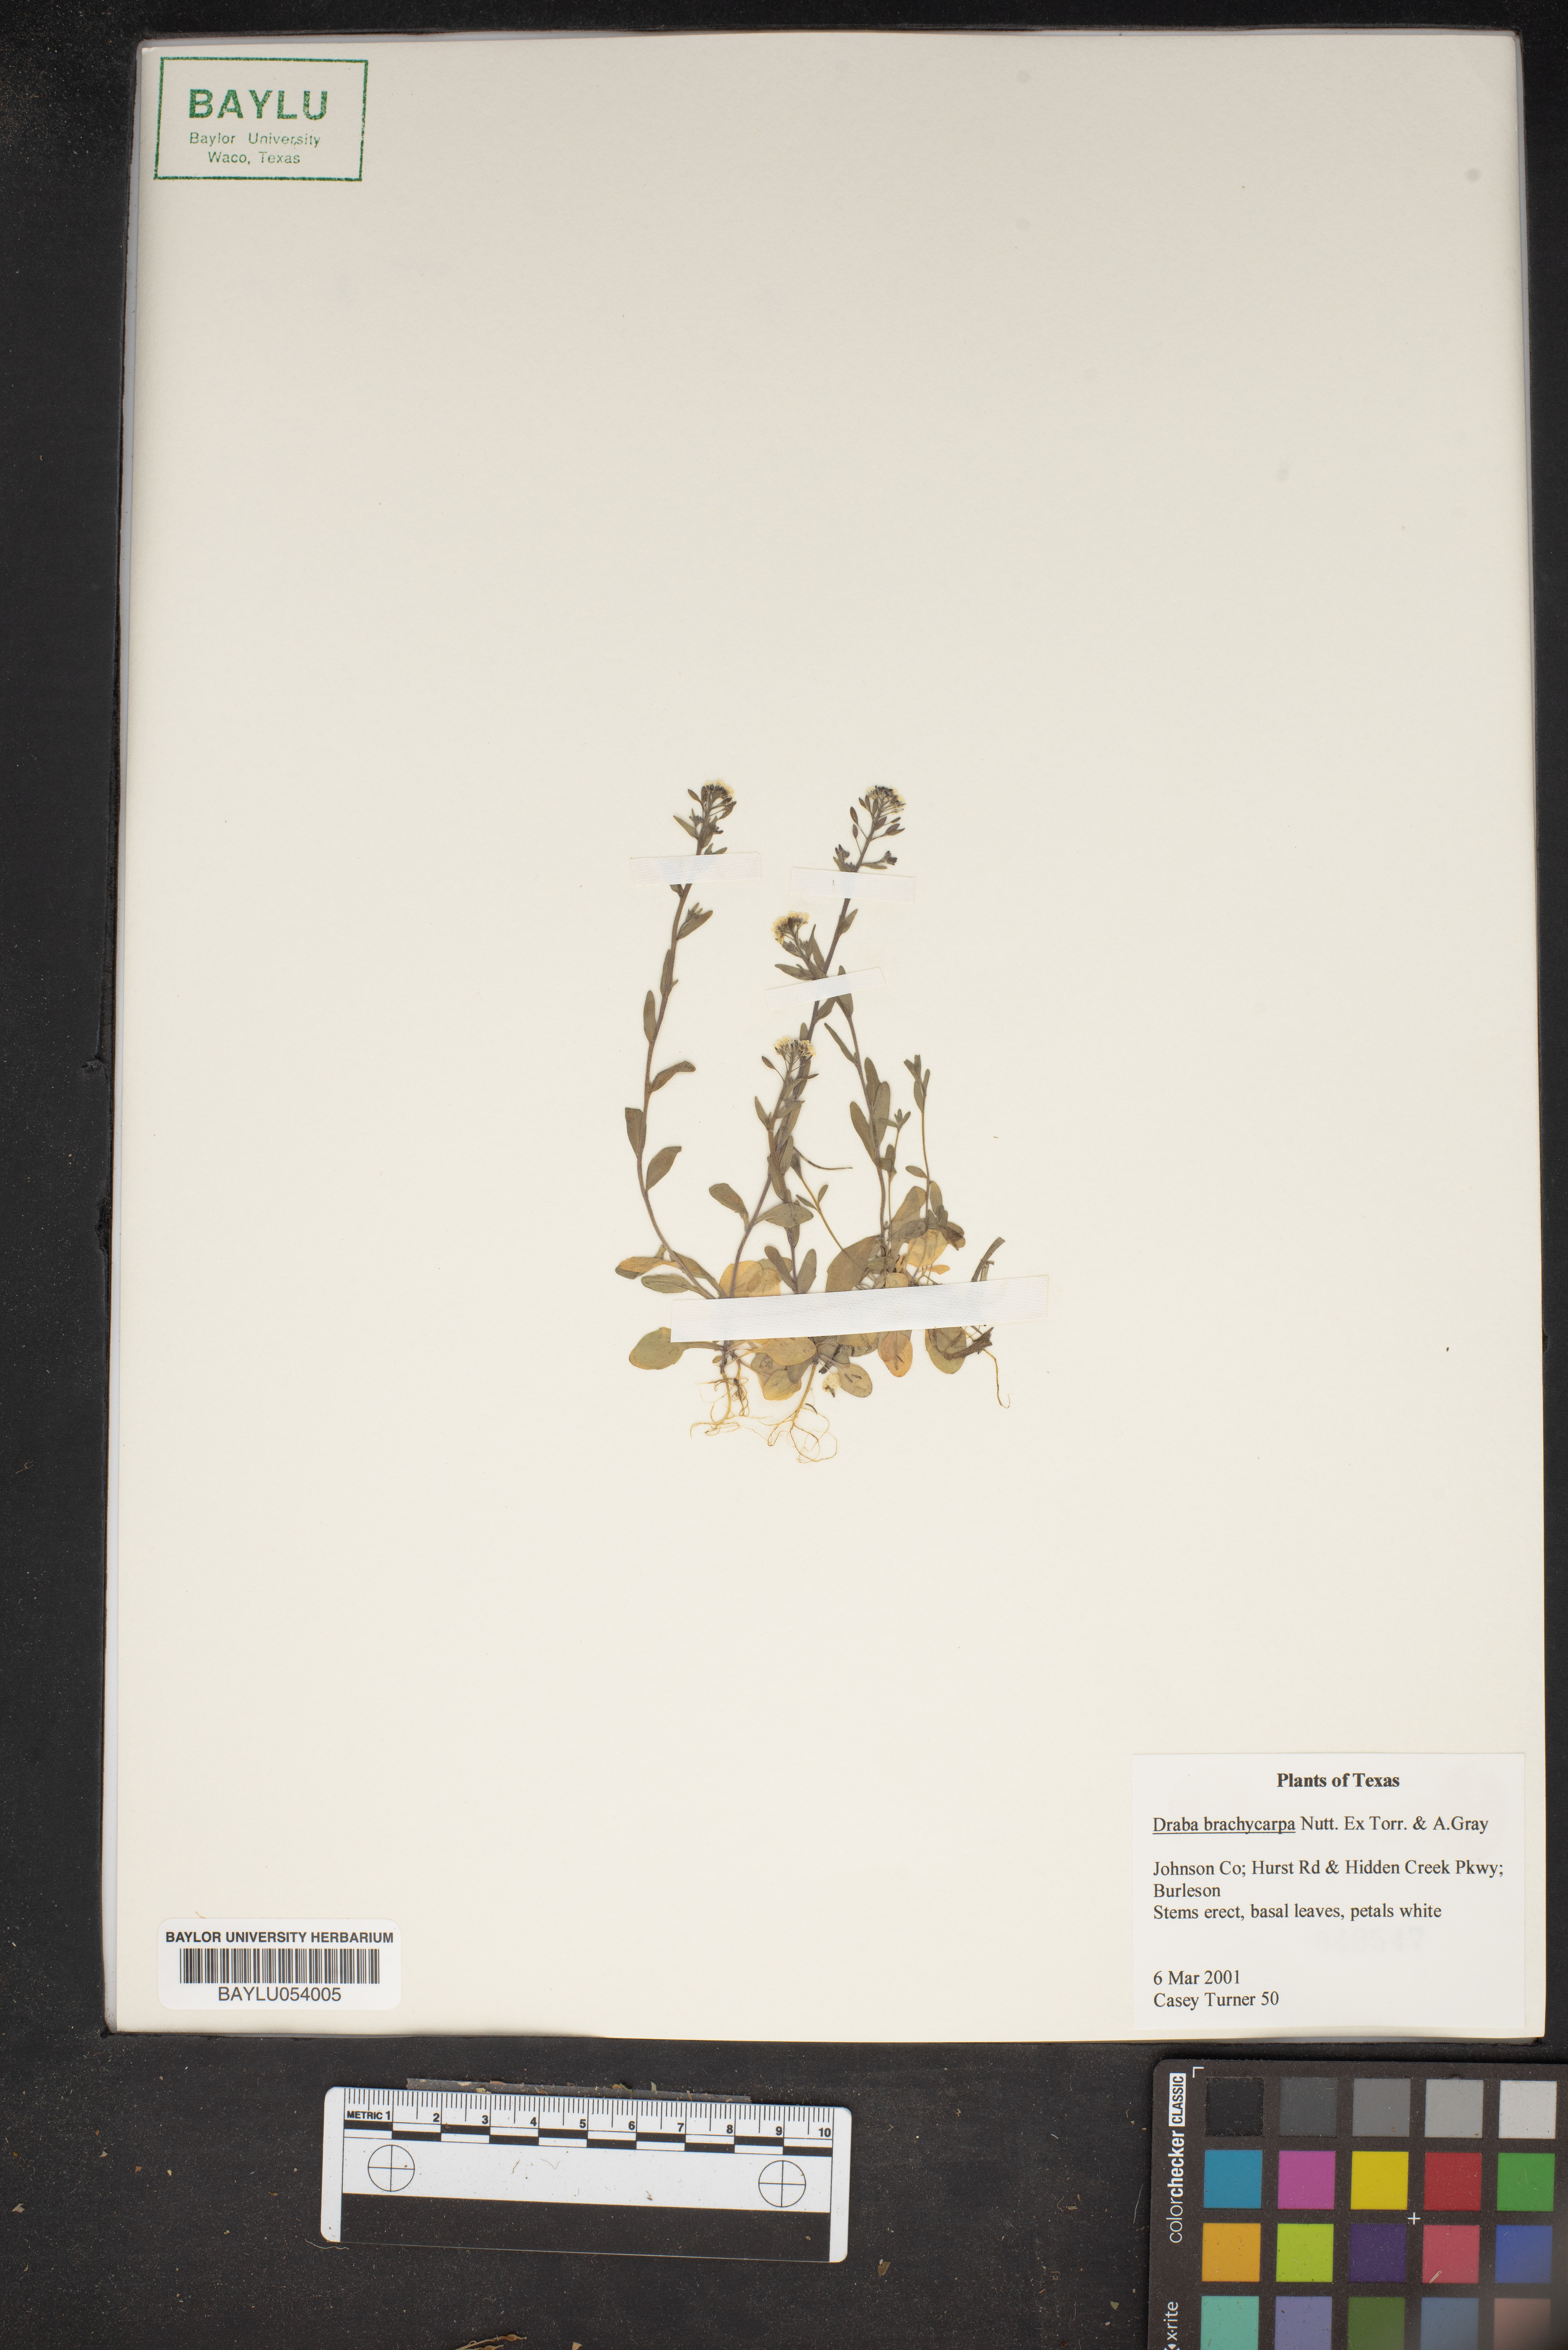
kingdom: Plantae
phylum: Tracheophyta
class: Magnoliopsida
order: Brassicales
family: Brassicaceae
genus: Abdra
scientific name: Abdra brachycarpa
